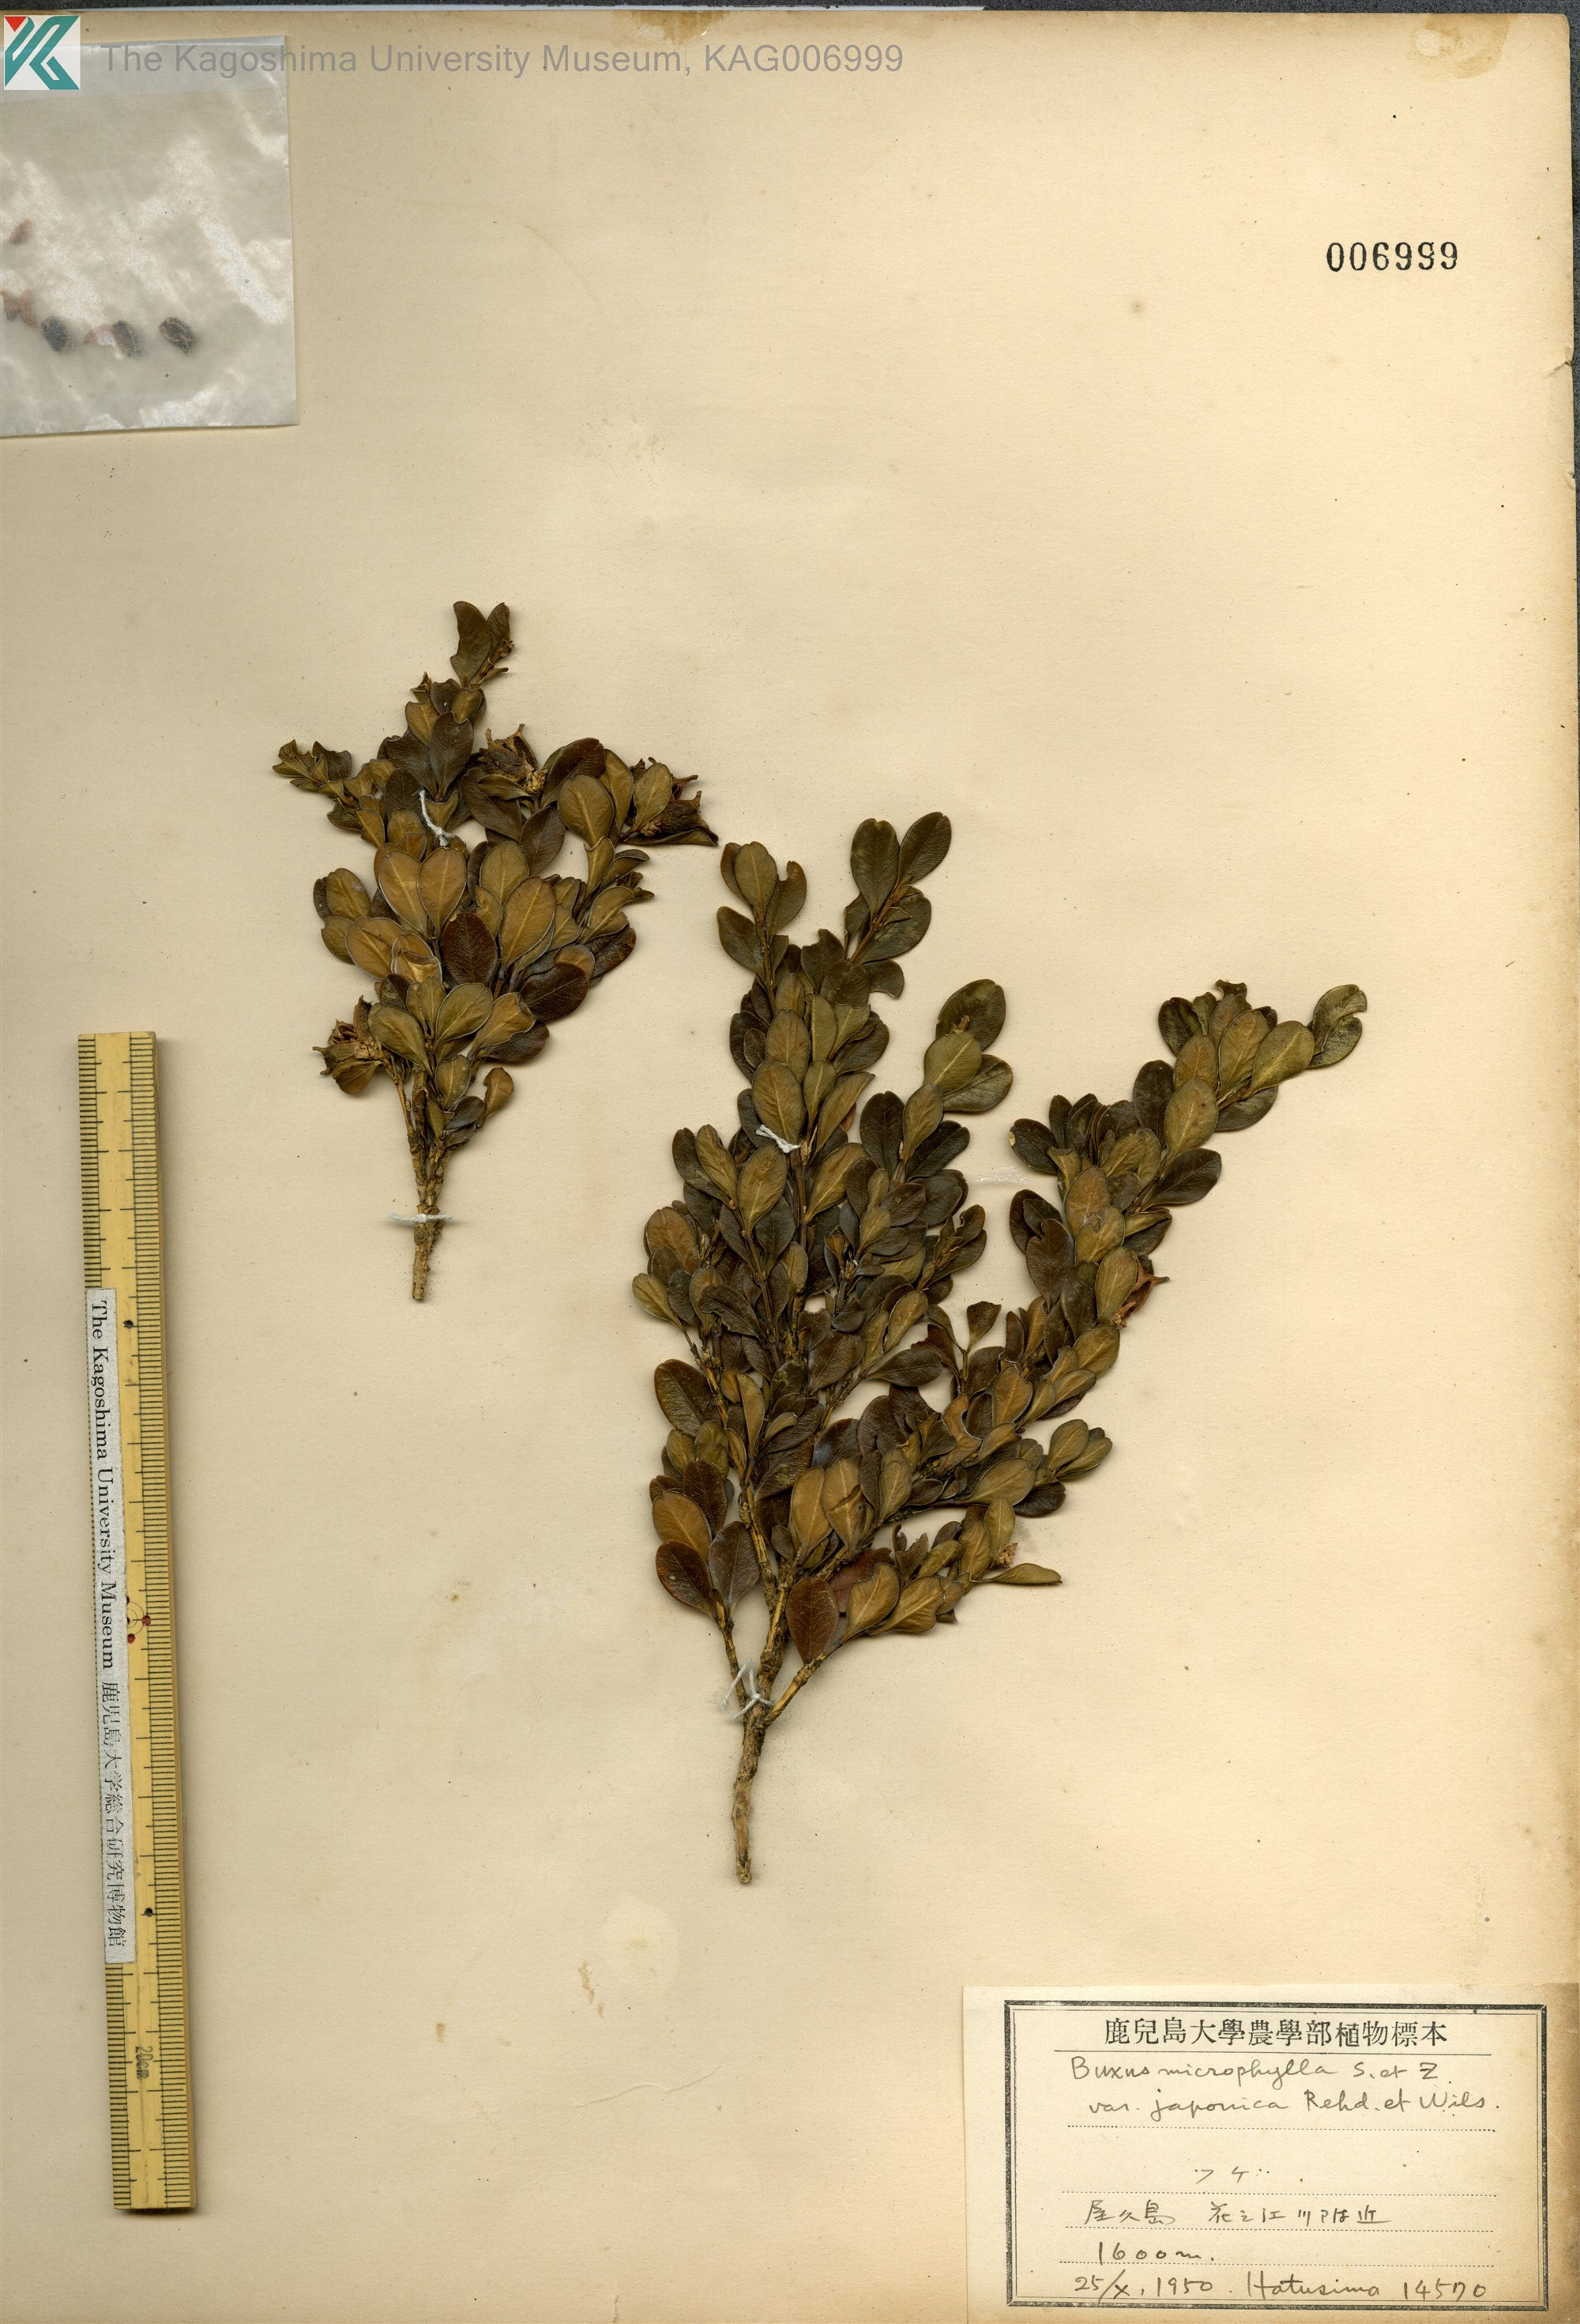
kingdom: Plantae
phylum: Tracheophyta
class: Magnoliopsida
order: Buxales
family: Buxaceae
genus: Buxus
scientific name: Buxus microphylla
